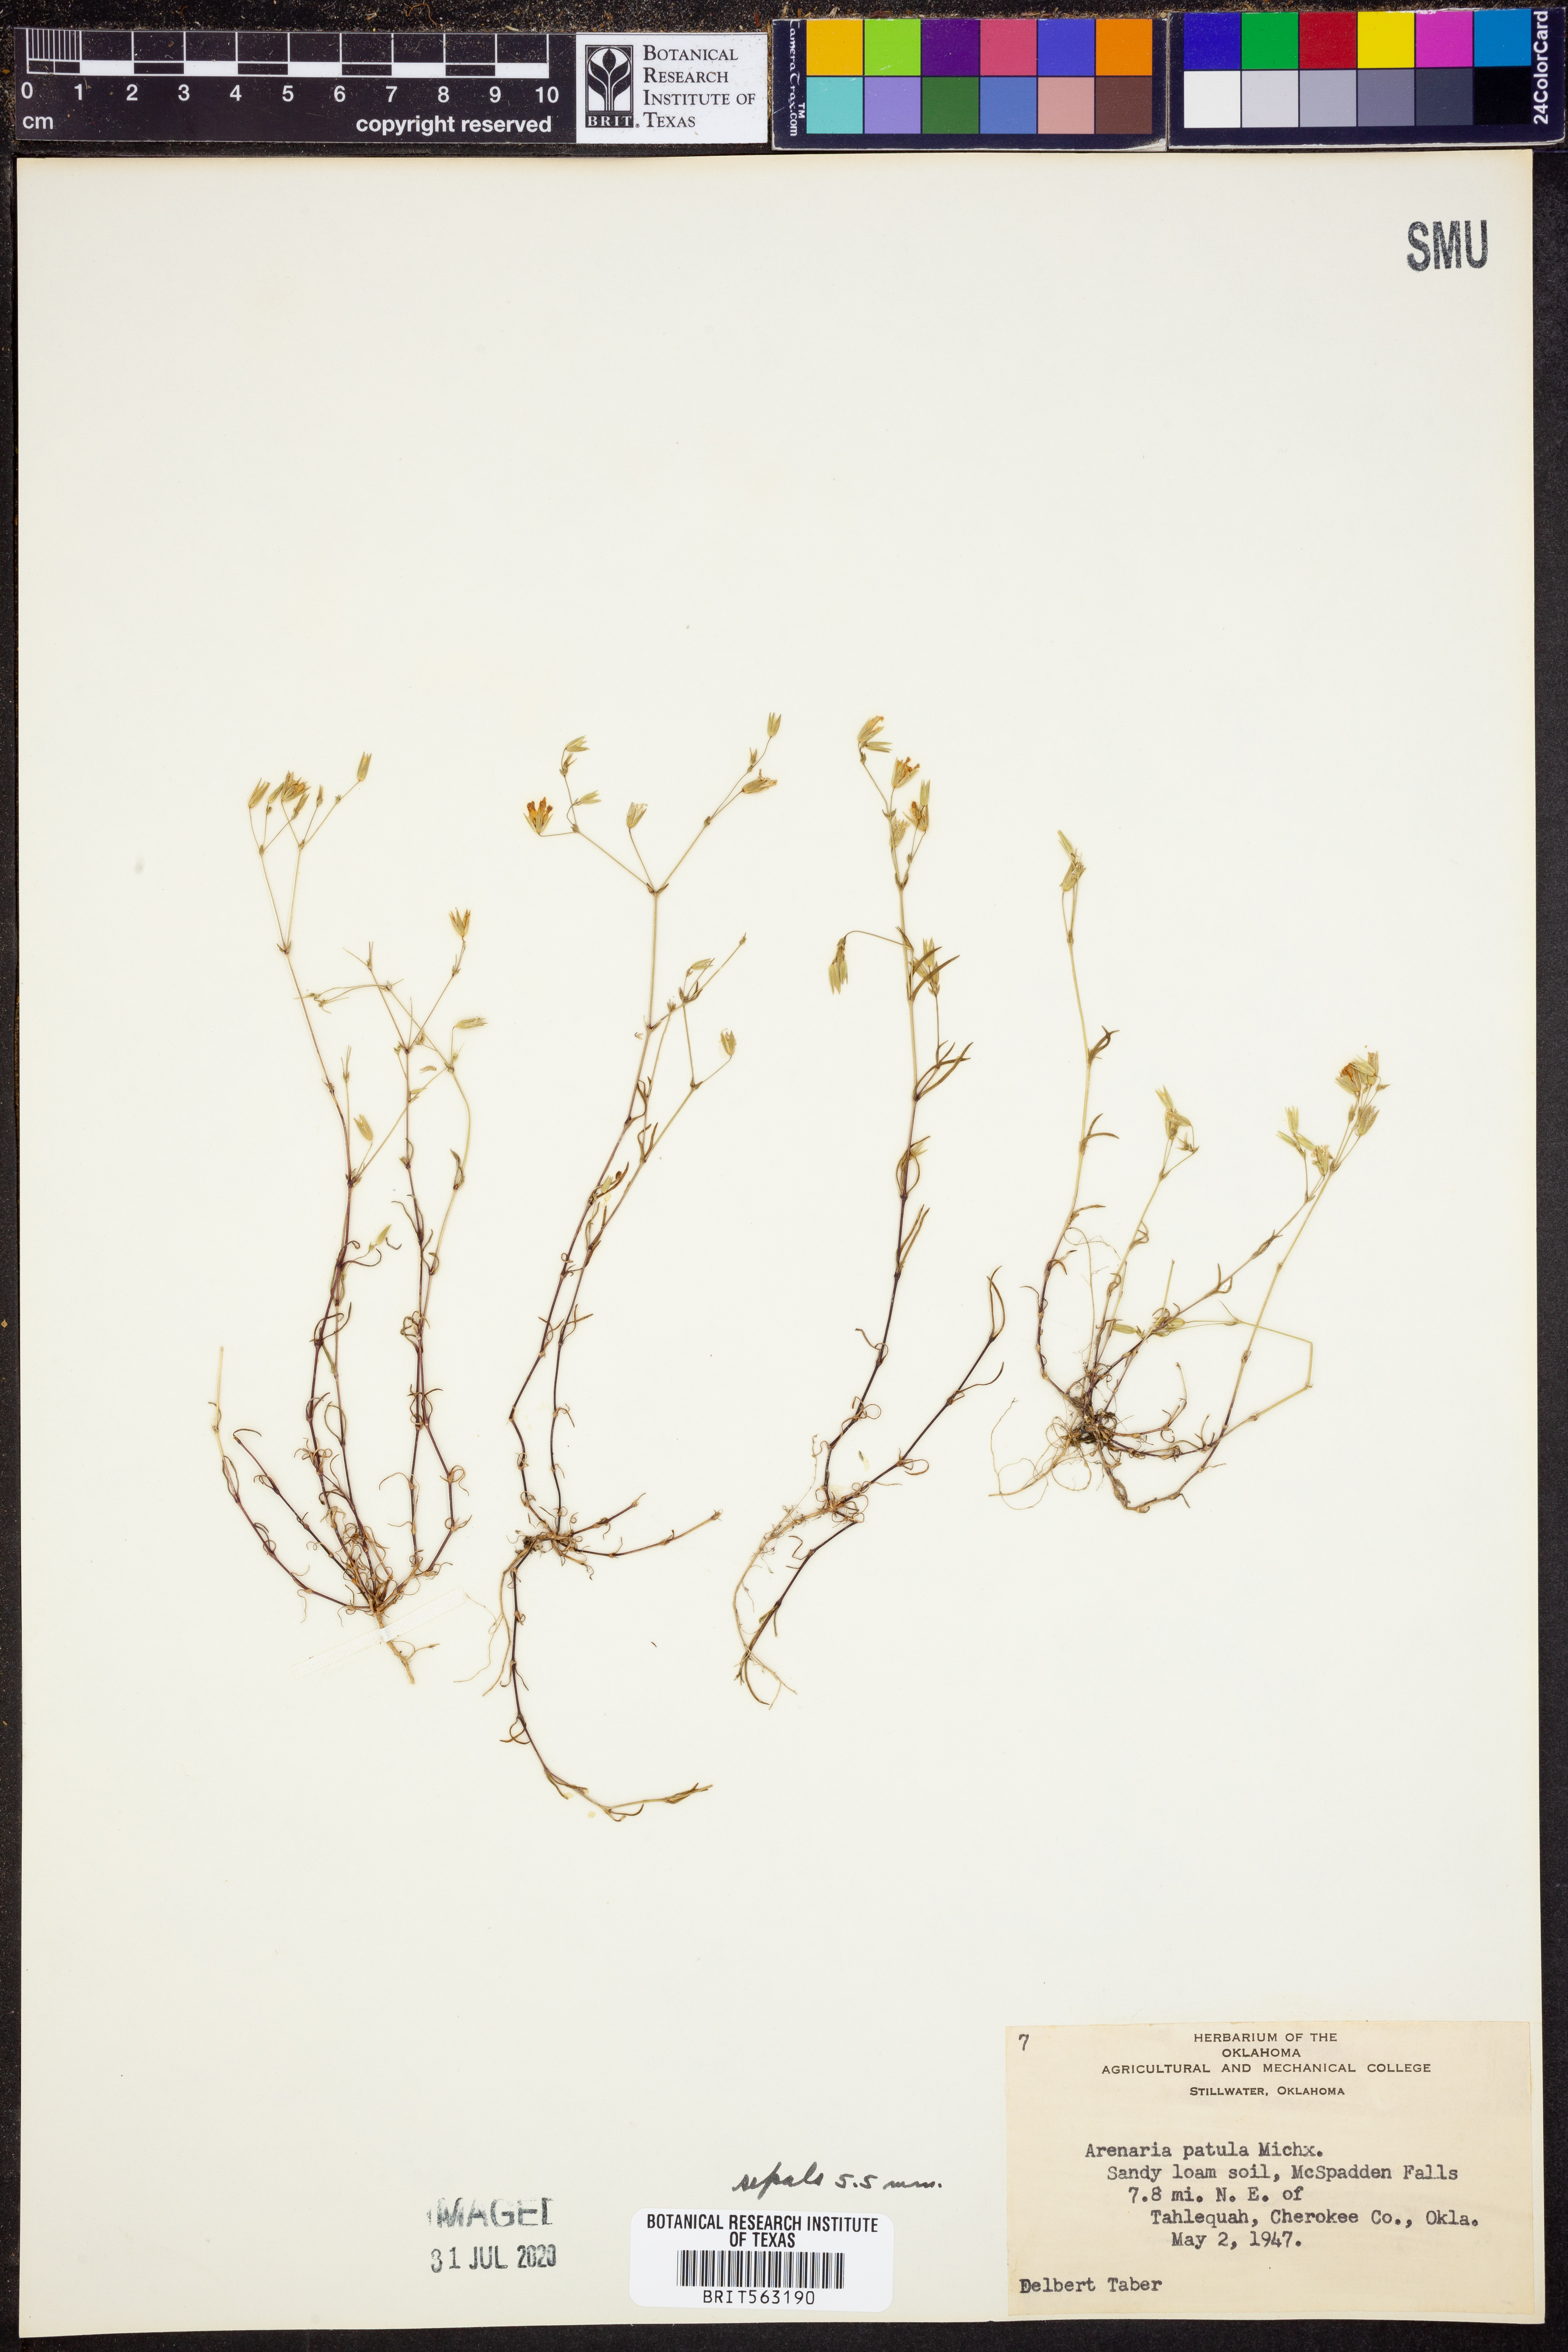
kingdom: Plantae
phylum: Tracheophyta
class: Magnoliopsida
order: Caryophyllales
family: Caryophyllaceae
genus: Mononeuria
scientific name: Mononeuria patula
